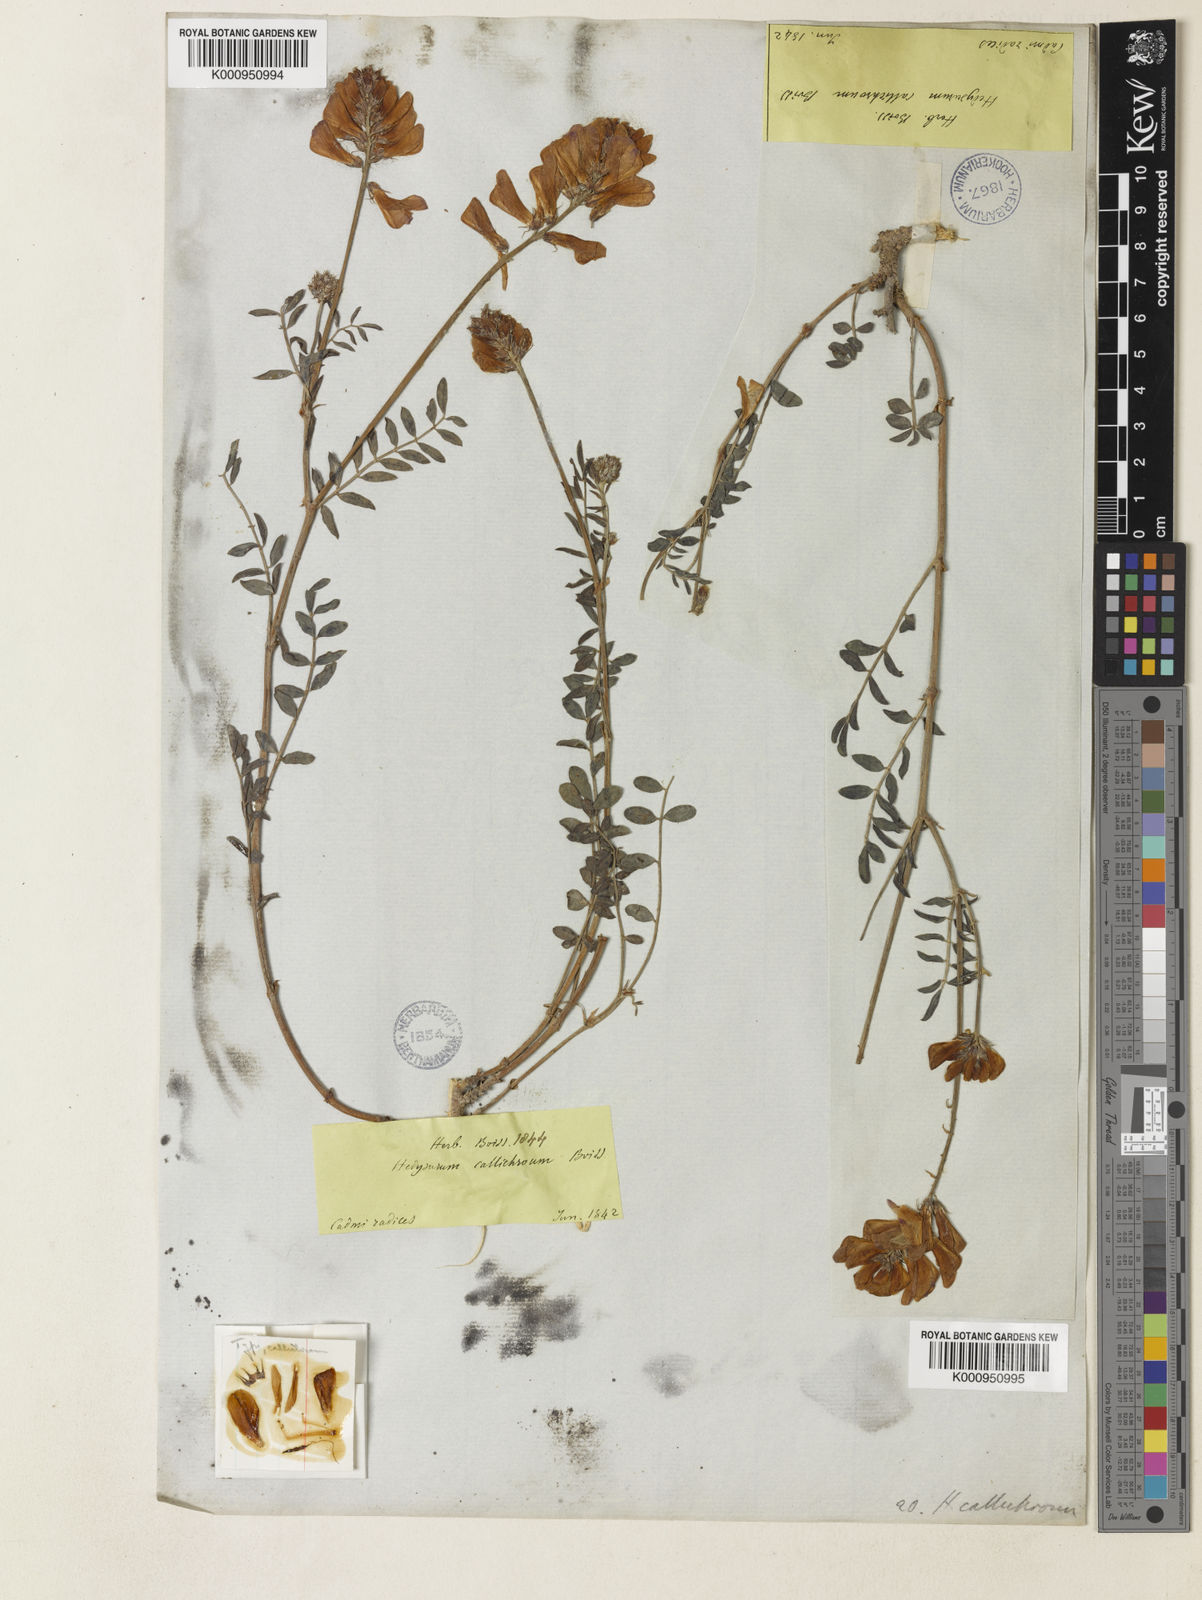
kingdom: Plantae
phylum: Tracheophyta
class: Magnoliopsida
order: Fabales
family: Fabaceae
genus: Hedysarum
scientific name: Hedysarum varium
